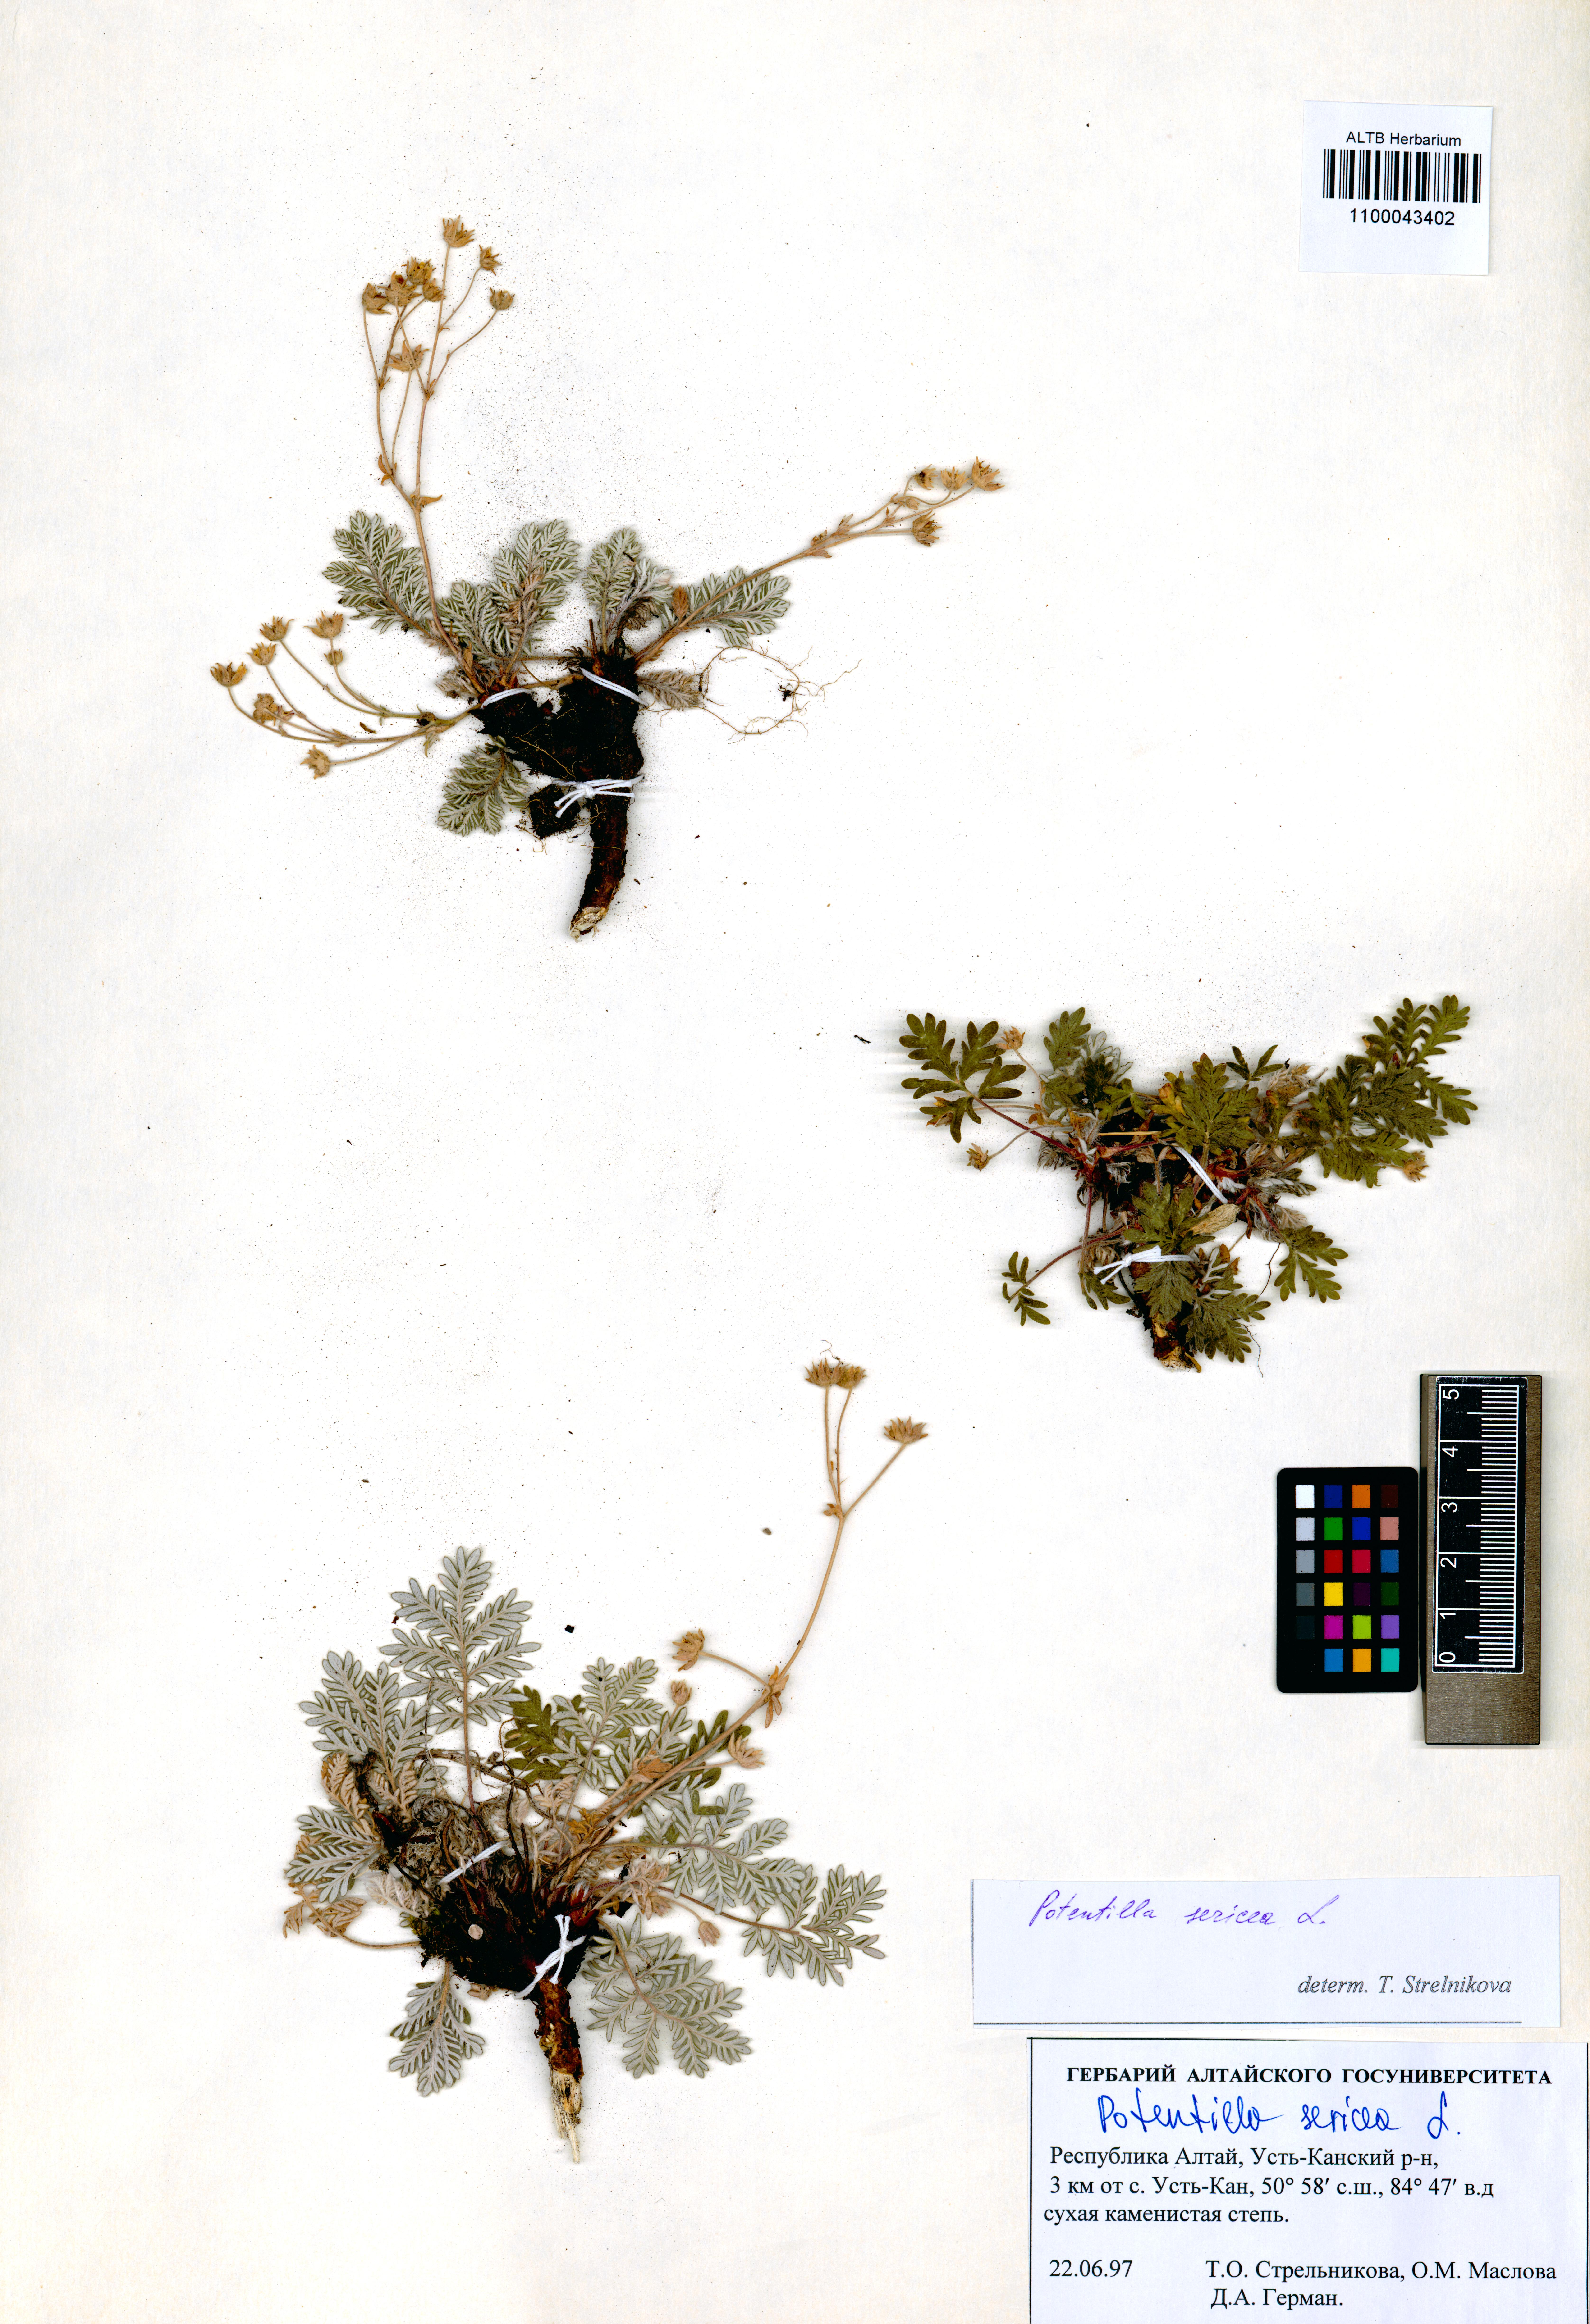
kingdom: Plantae
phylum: Tracheophyta
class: Magnoliopsida
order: Rosales
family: Rosaceae
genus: Potentilla
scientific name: Potentilla sericea
